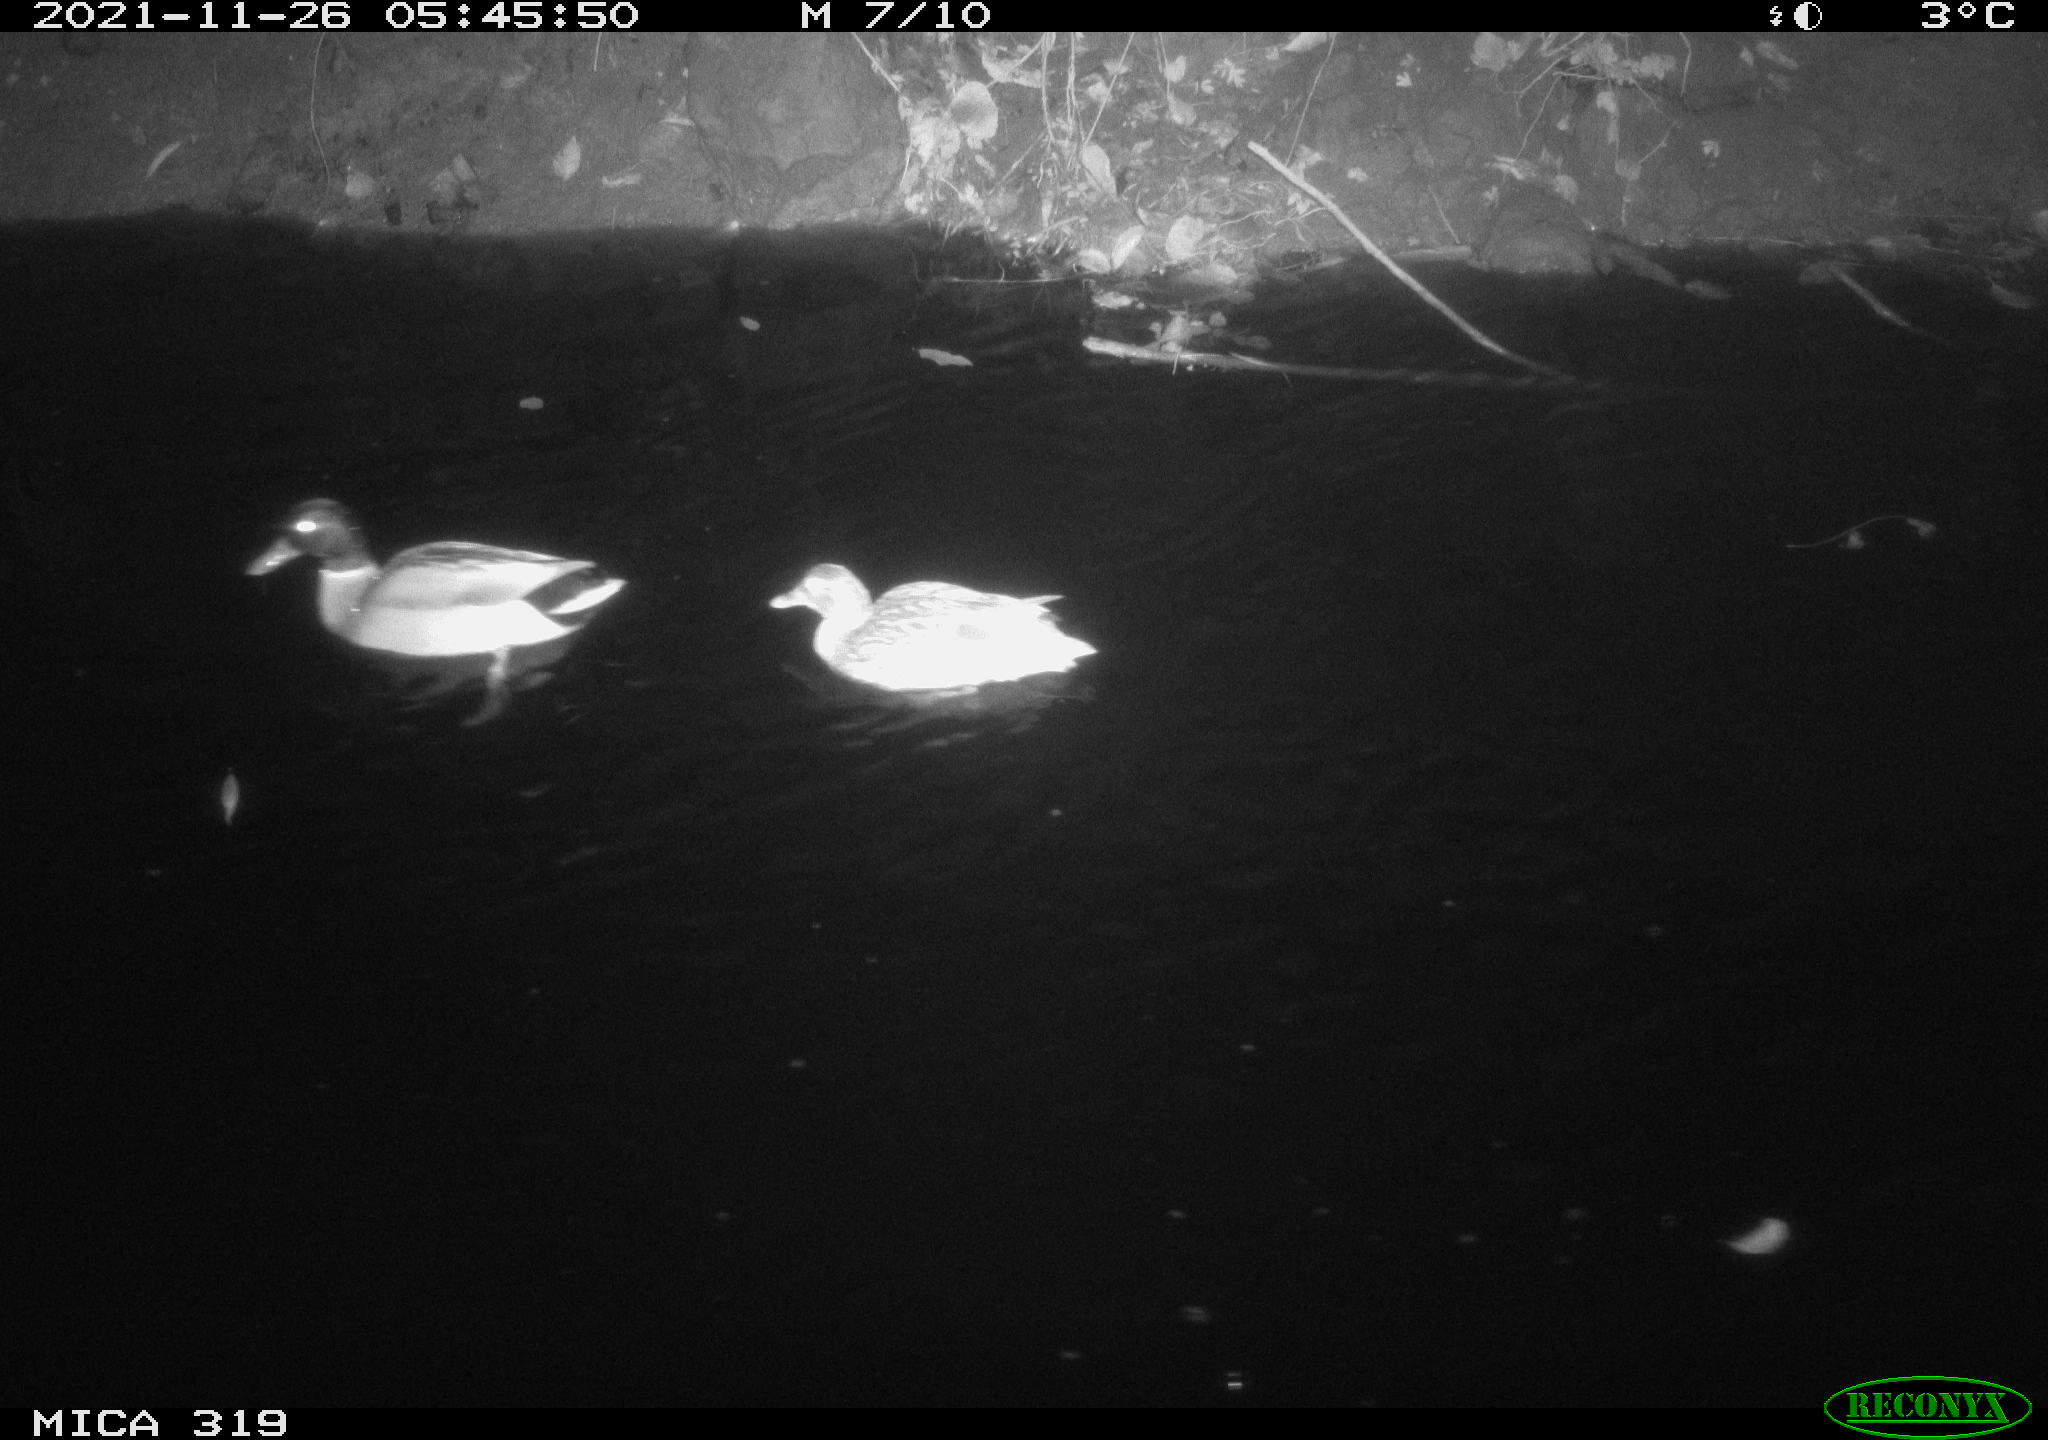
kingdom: Animalia
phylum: Chordata
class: Aves
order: Anseriformes
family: Anatidae
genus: Anas
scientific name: Anas platyrhynchos
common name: Mallard
